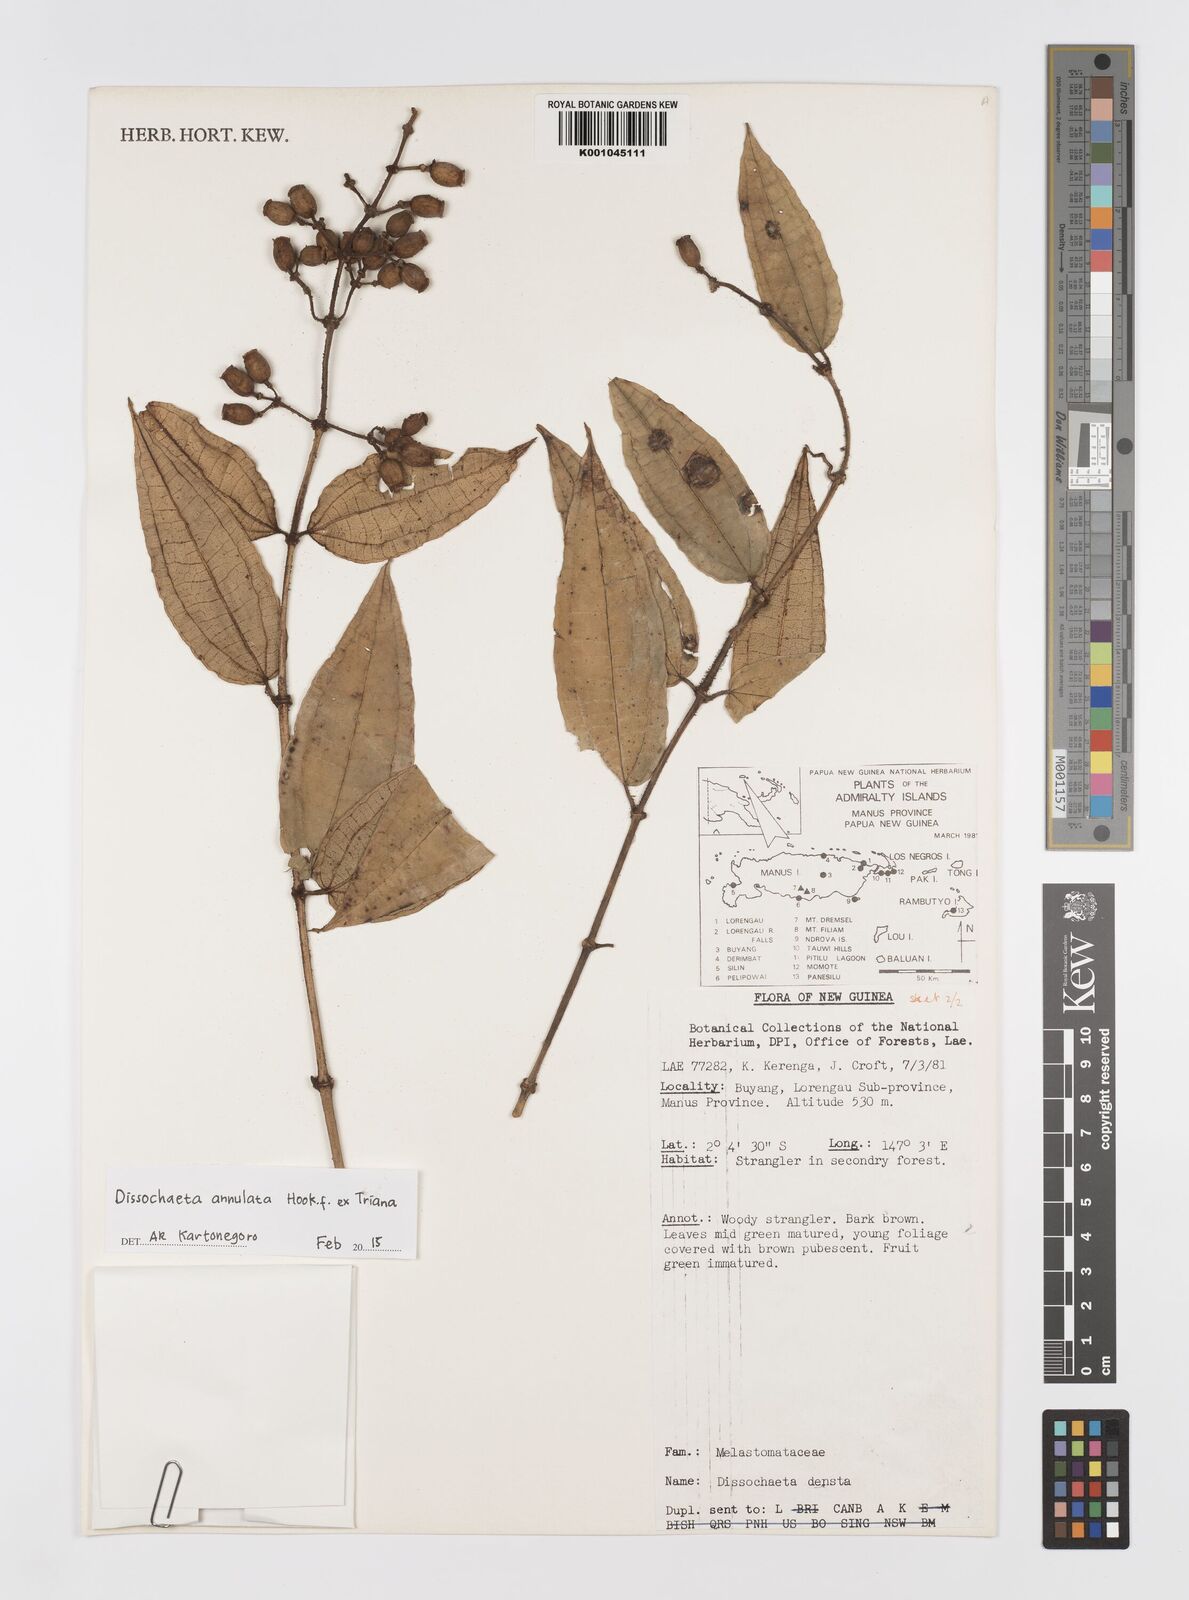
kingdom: Plantae
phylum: Tracheophyta
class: Magnoliopsida
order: Myrtales
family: Melastomataceae
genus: Dissochaeta
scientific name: Dissochaeta annulata
